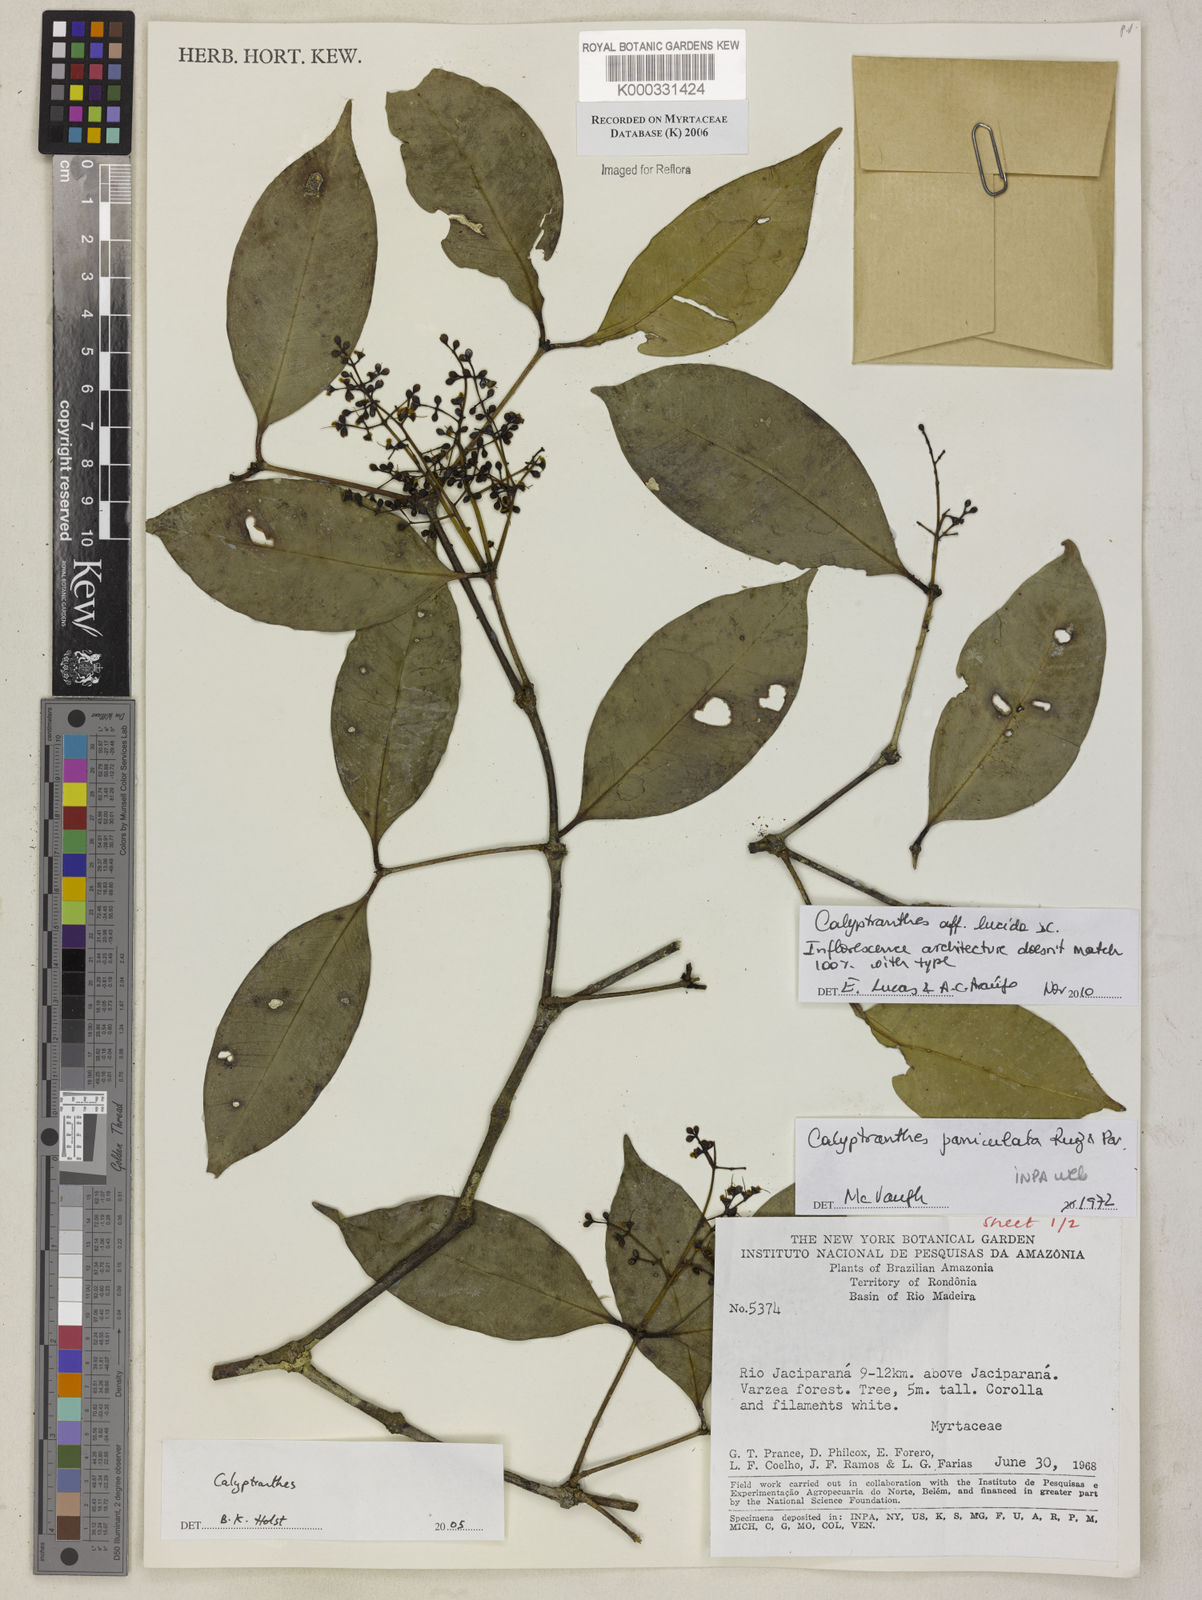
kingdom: Plantae
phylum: Tracheophyta
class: Magnoliopsida
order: Myrtales
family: Myrtaceae
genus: Calyptranthes
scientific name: Calyptranthes
